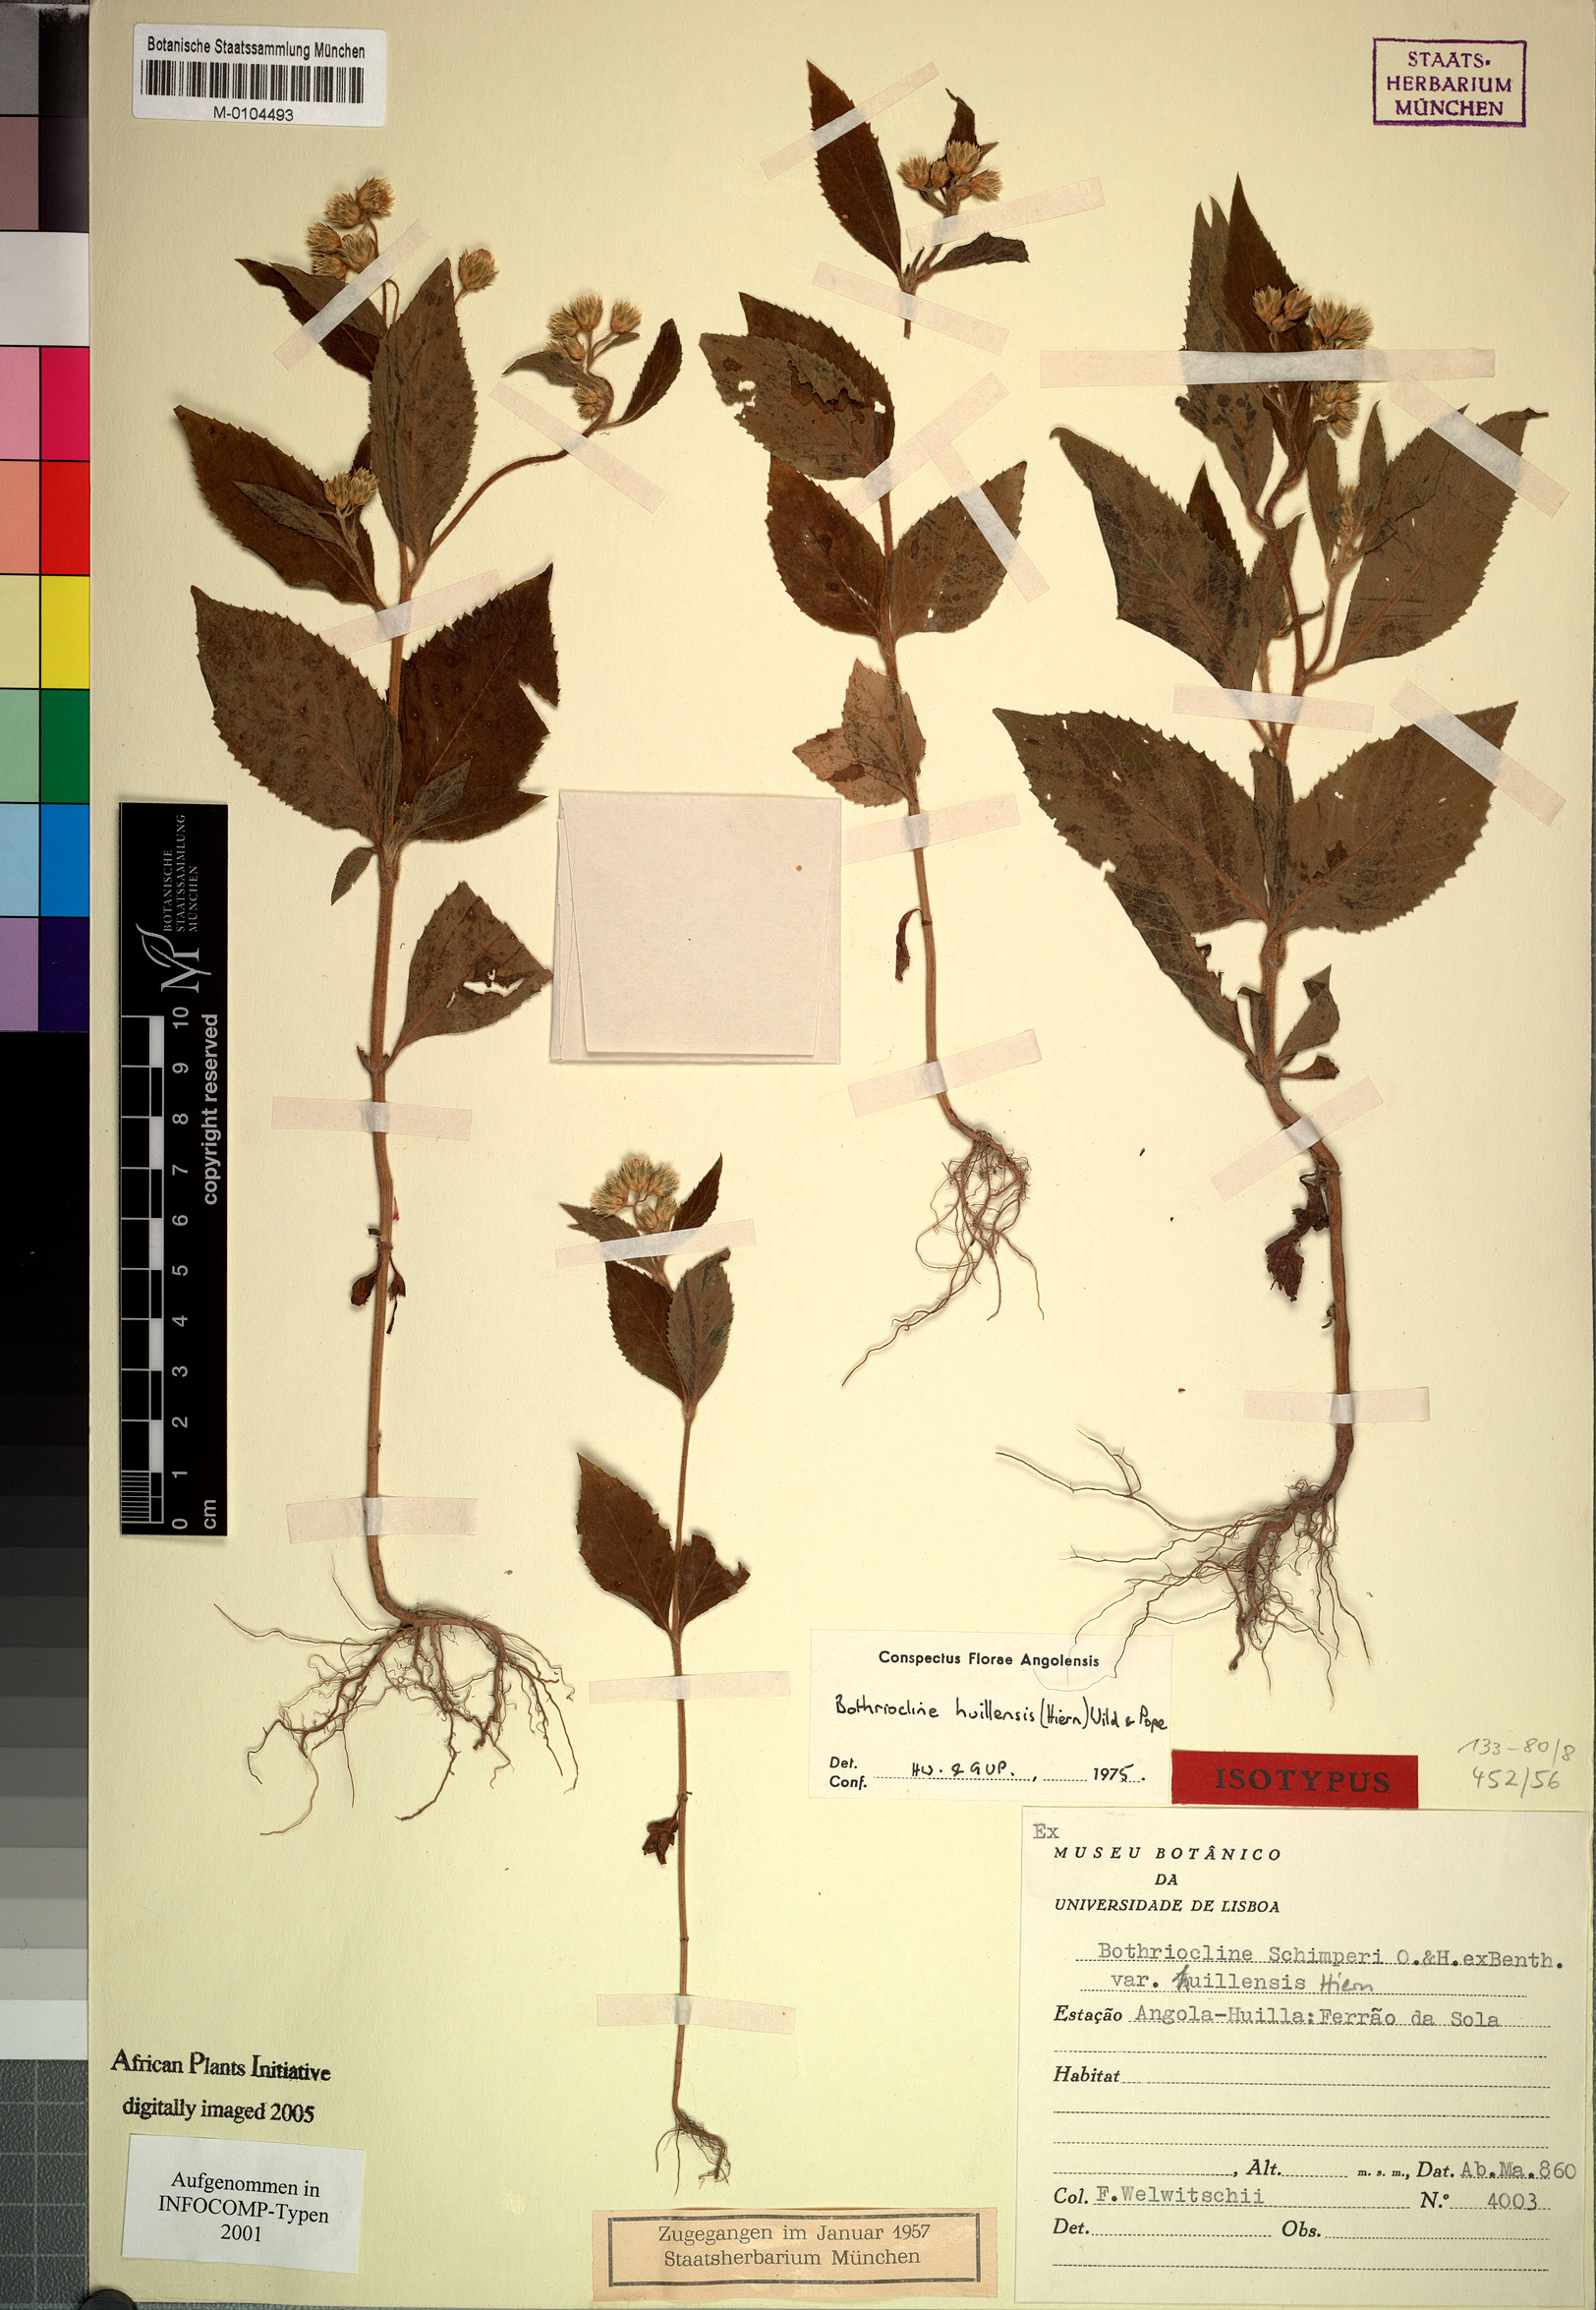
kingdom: Plantae
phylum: Tracheophyta
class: Magnoliopsida
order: Asterales
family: Asteraceae
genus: Bothriocline
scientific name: Bothriocline huillensis
